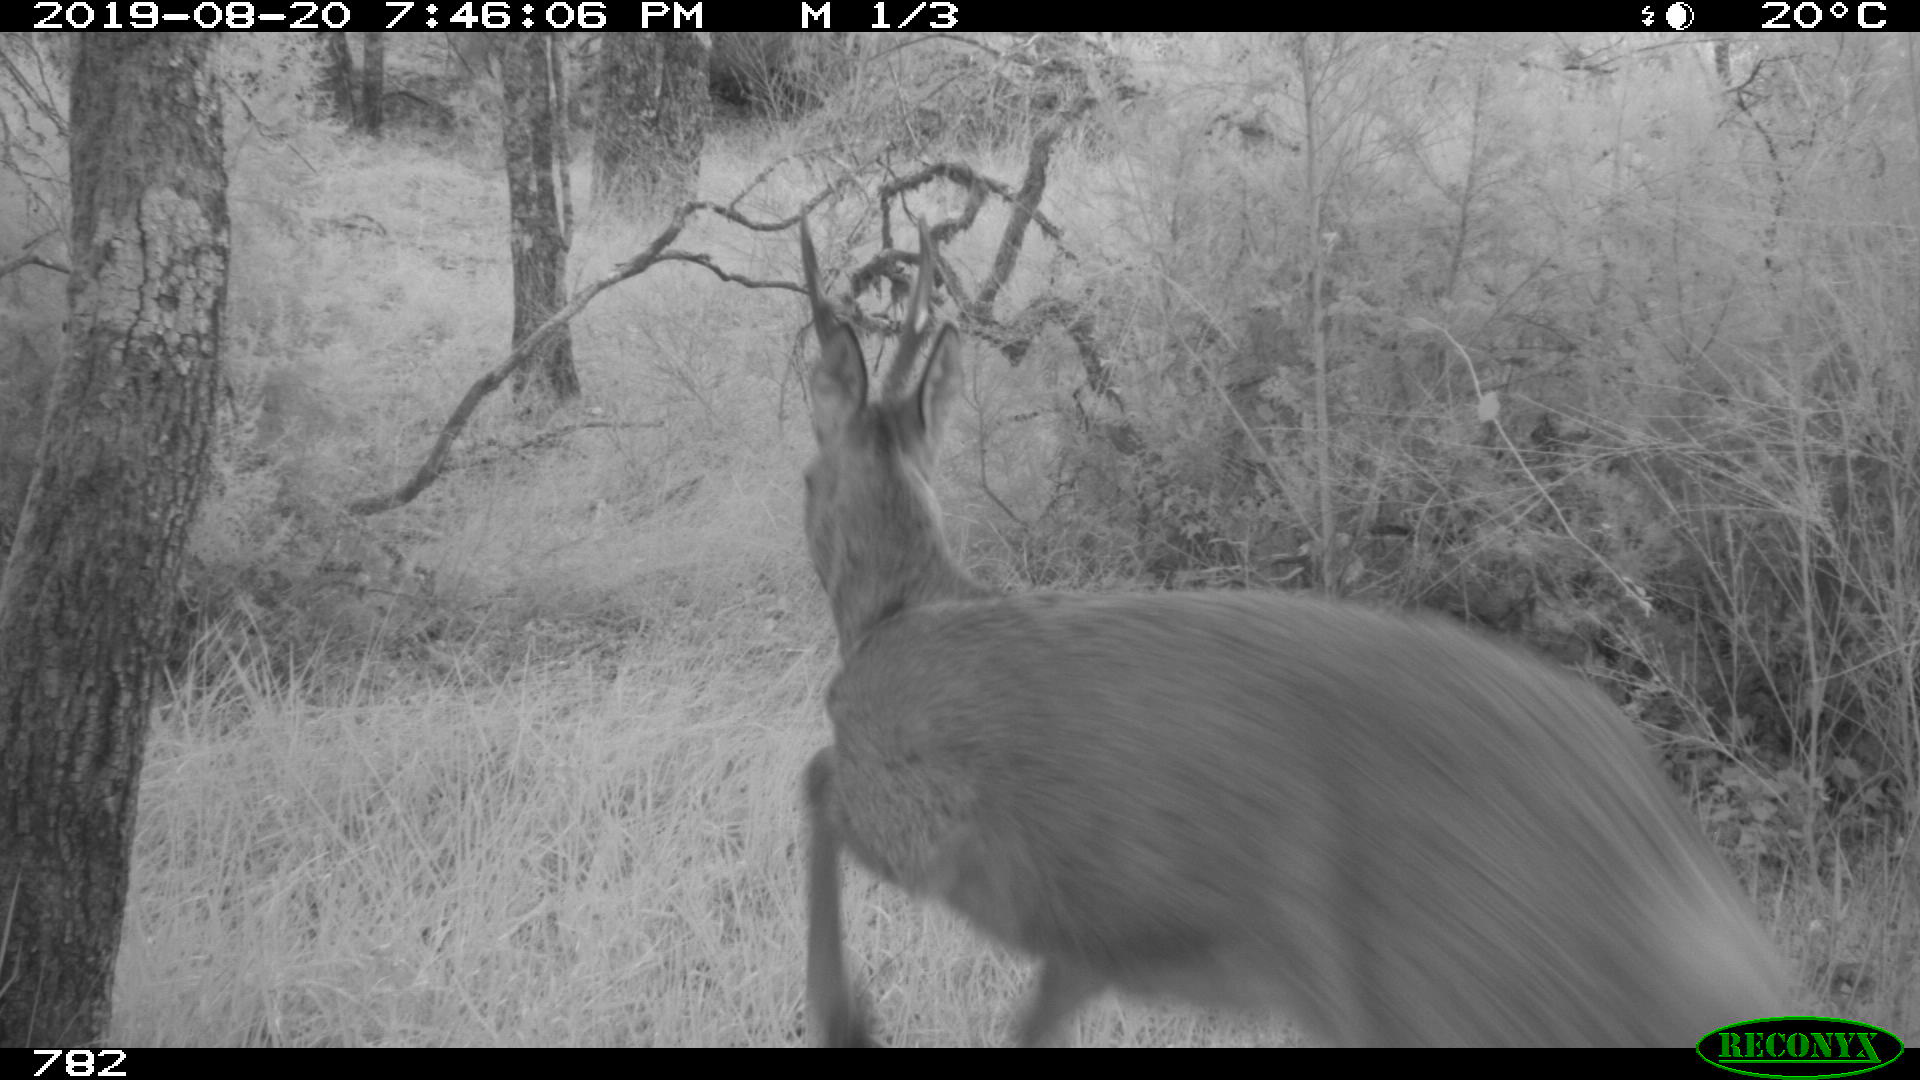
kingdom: Animalia
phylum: Chordata
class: Mammalia
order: Artiodactyla
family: Cervidae
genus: Capreolus
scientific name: Capreolus capreolus
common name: Western roe deer
